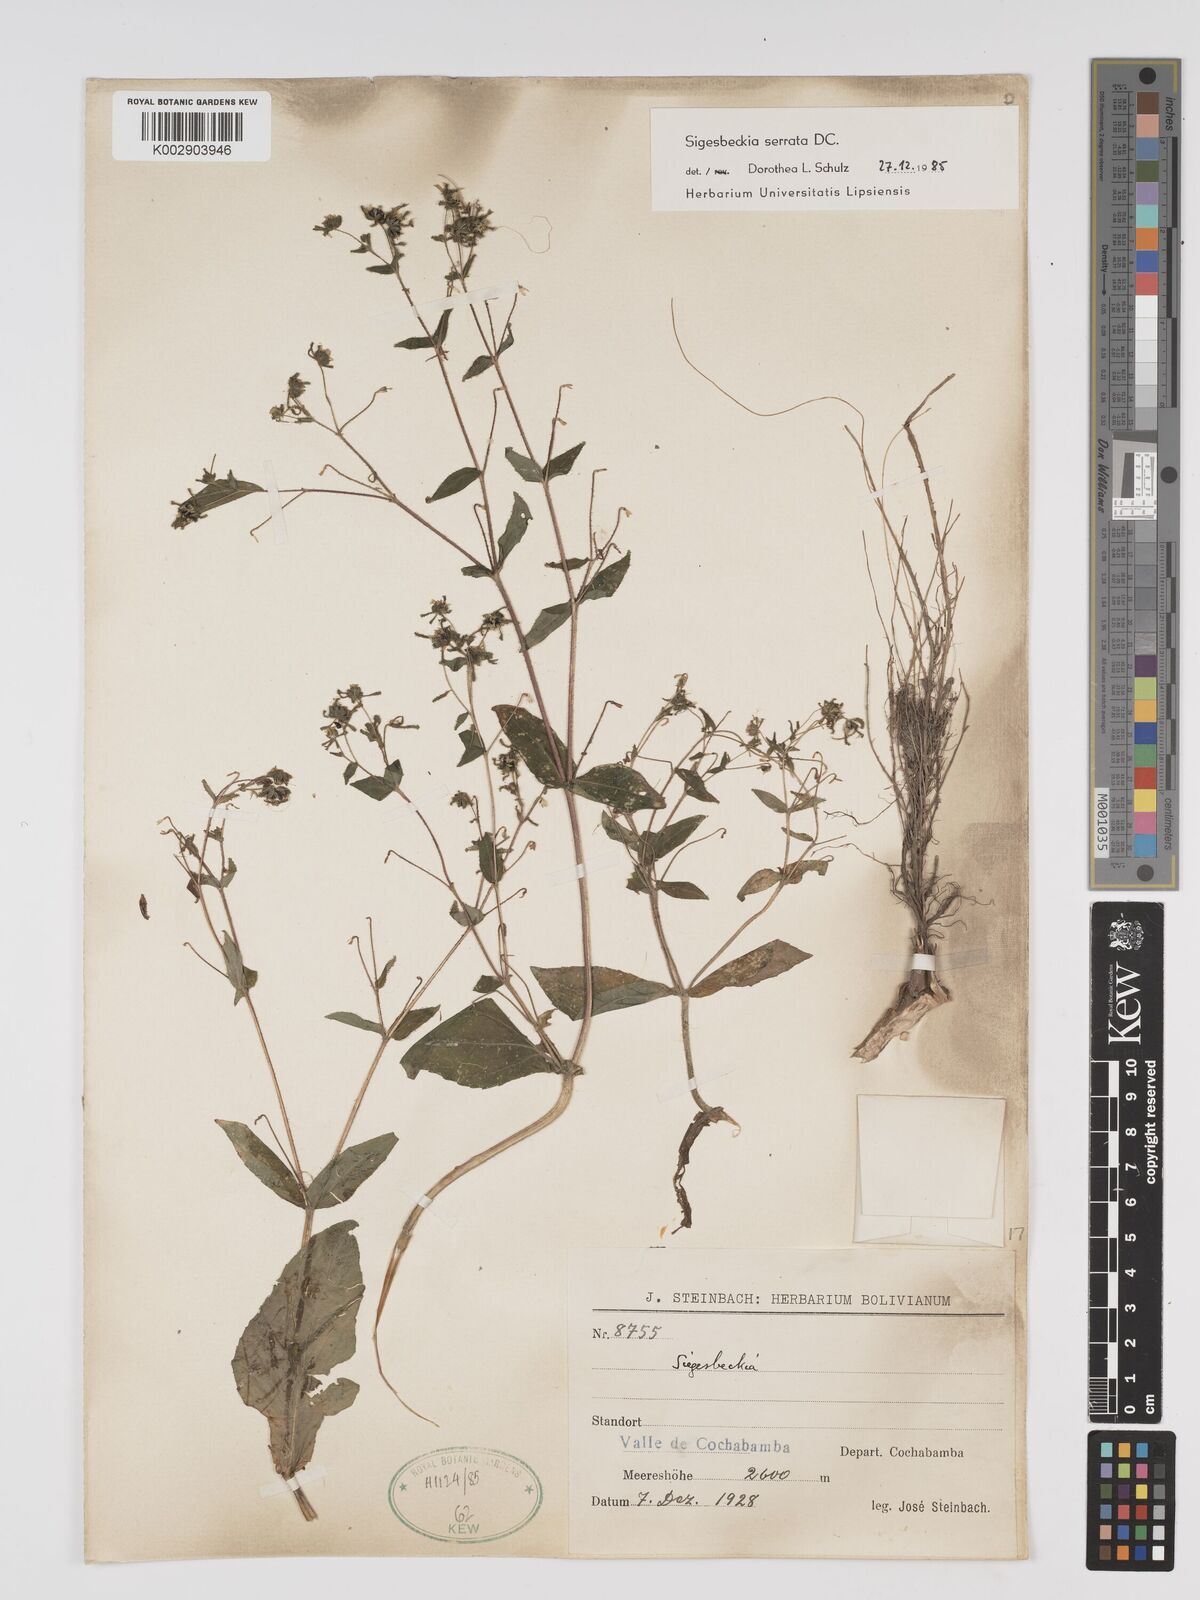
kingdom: Plantae
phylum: Tracheophyta
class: Magnoliopsida
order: Asterales
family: Asteraceae
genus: Sigesbeckia
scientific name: Sigesbeckia jorullensis
